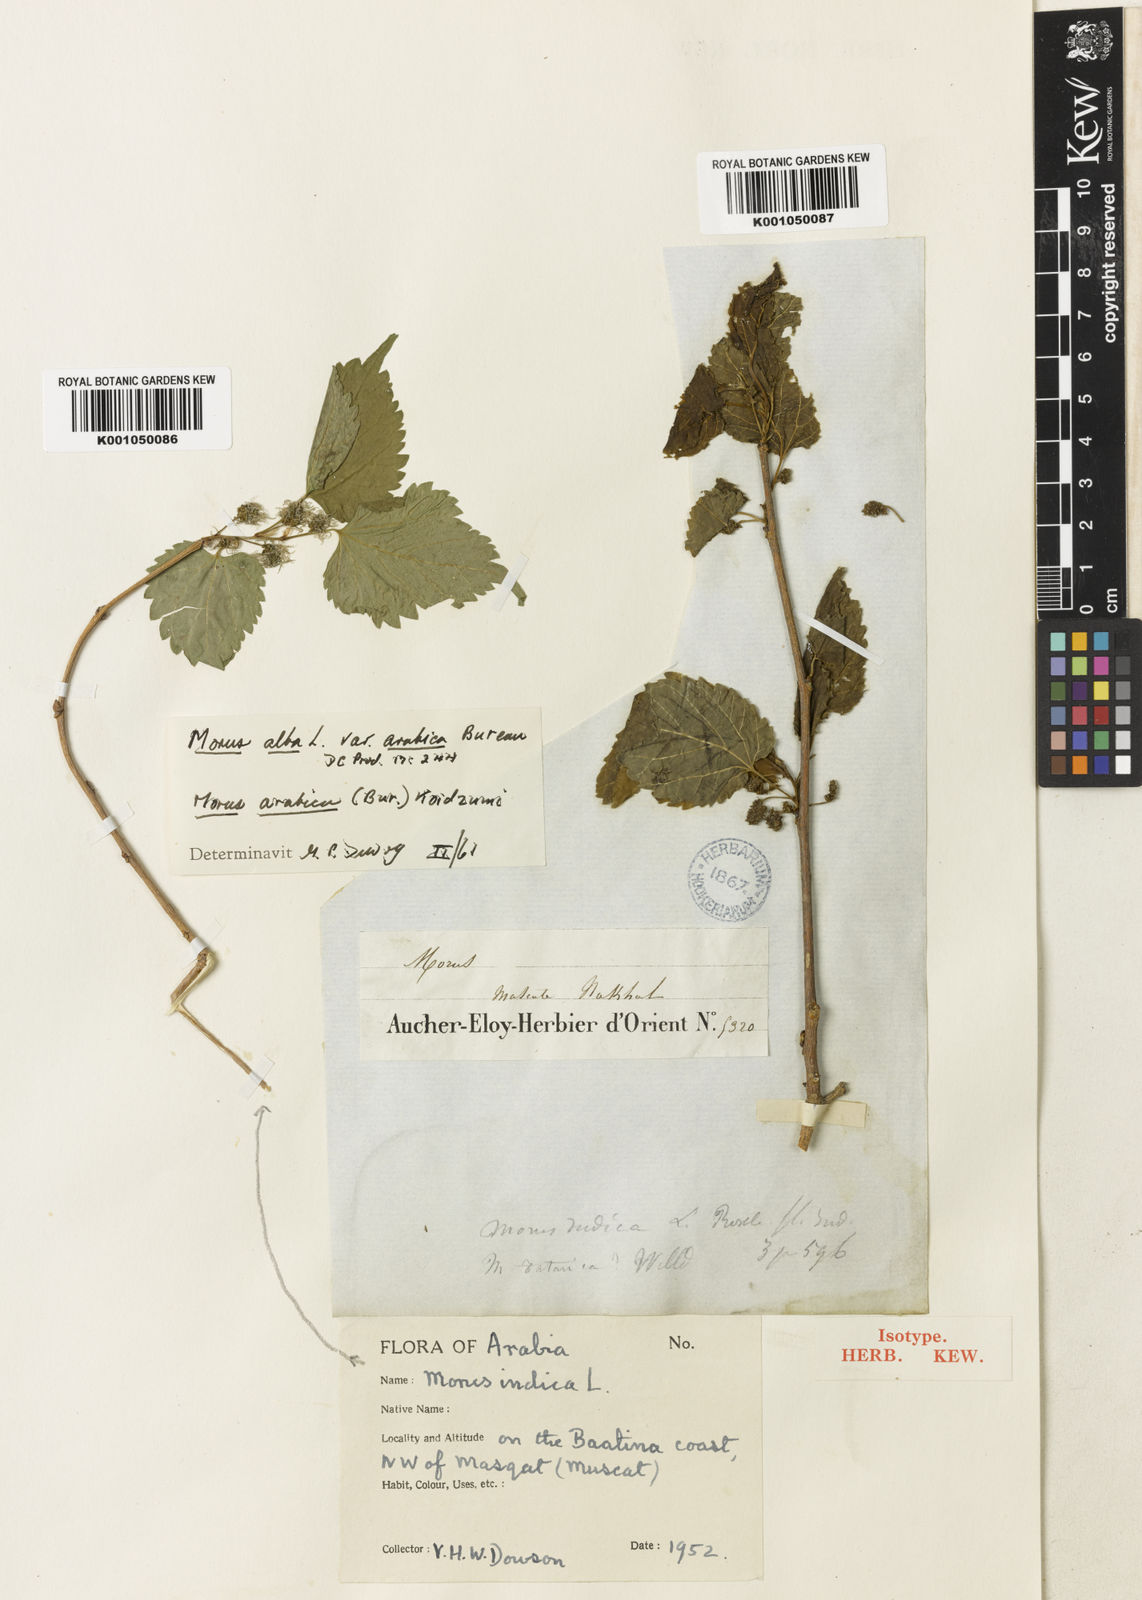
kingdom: Plantae
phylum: Tracheophyta
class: Magnoliopsida
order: Rosales
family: Moraceae
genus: Morus
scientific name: Morus alba
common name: White mulberry
